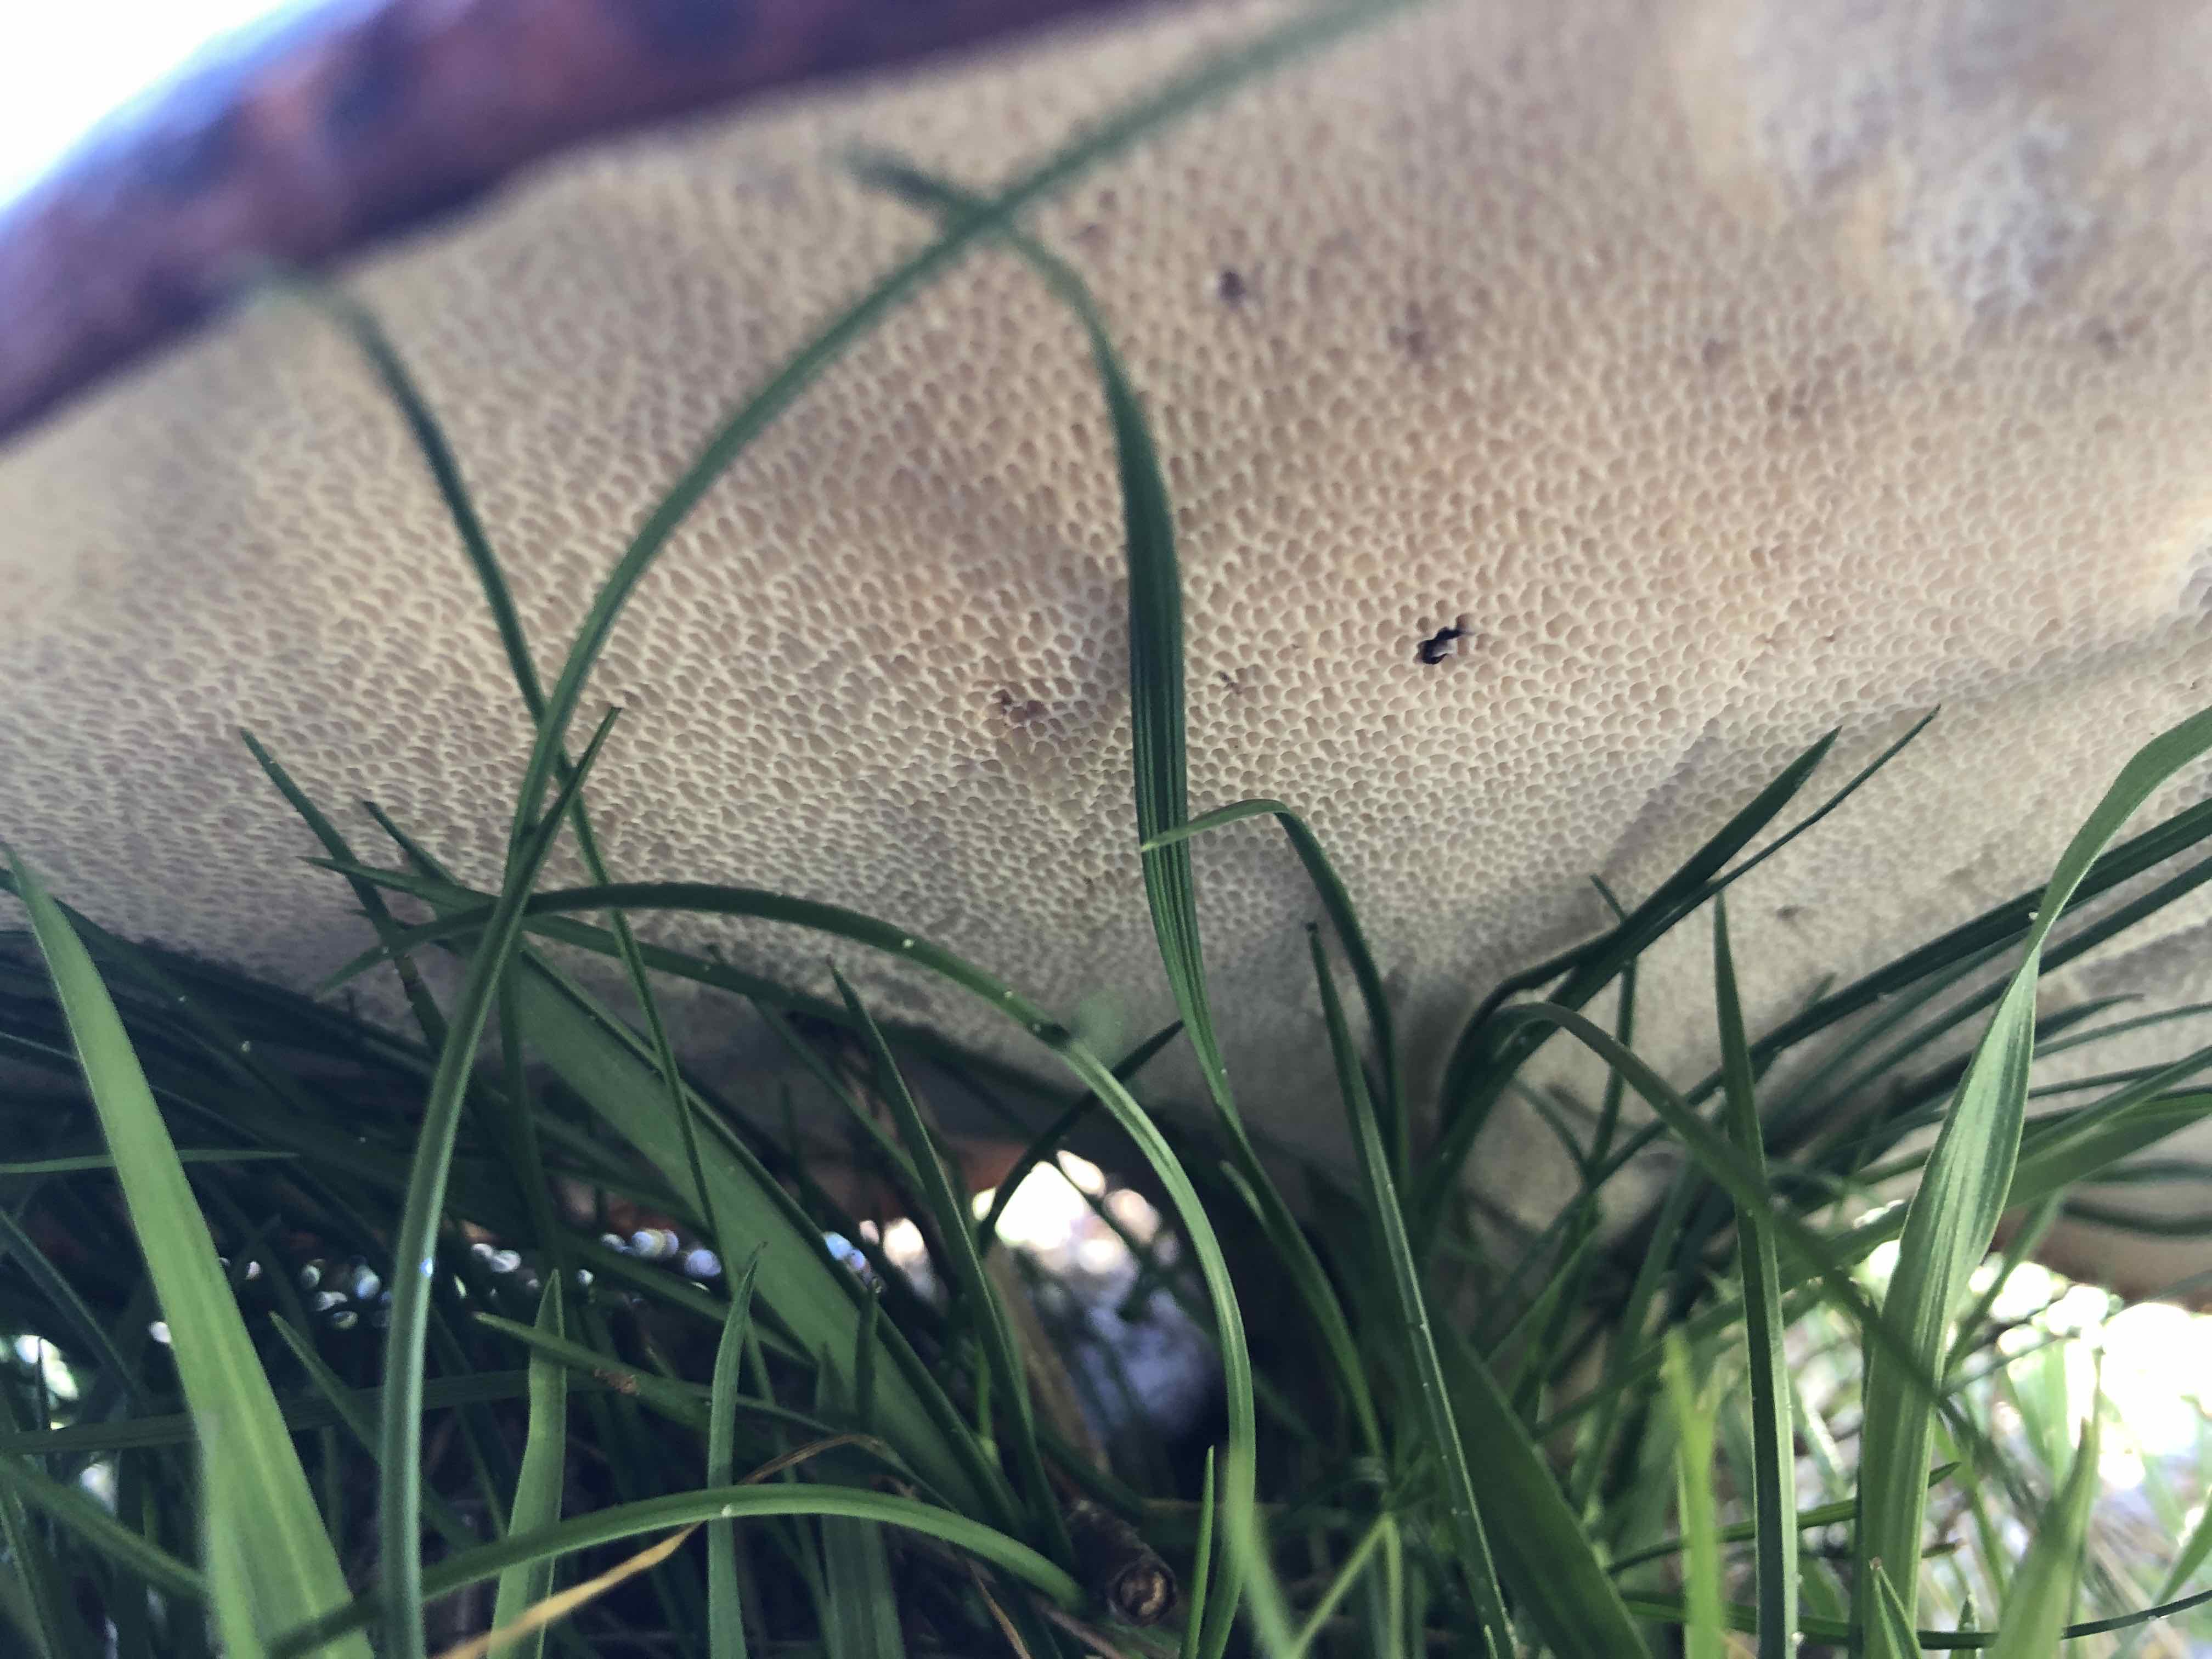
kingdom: Fungi
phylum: Basidiomycota
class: Agaricomycetes
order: Polyporales
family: Polyporaceae
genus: Cerioporus
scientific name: Cerioporus squamosus
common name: skællet stilkporesvamp
